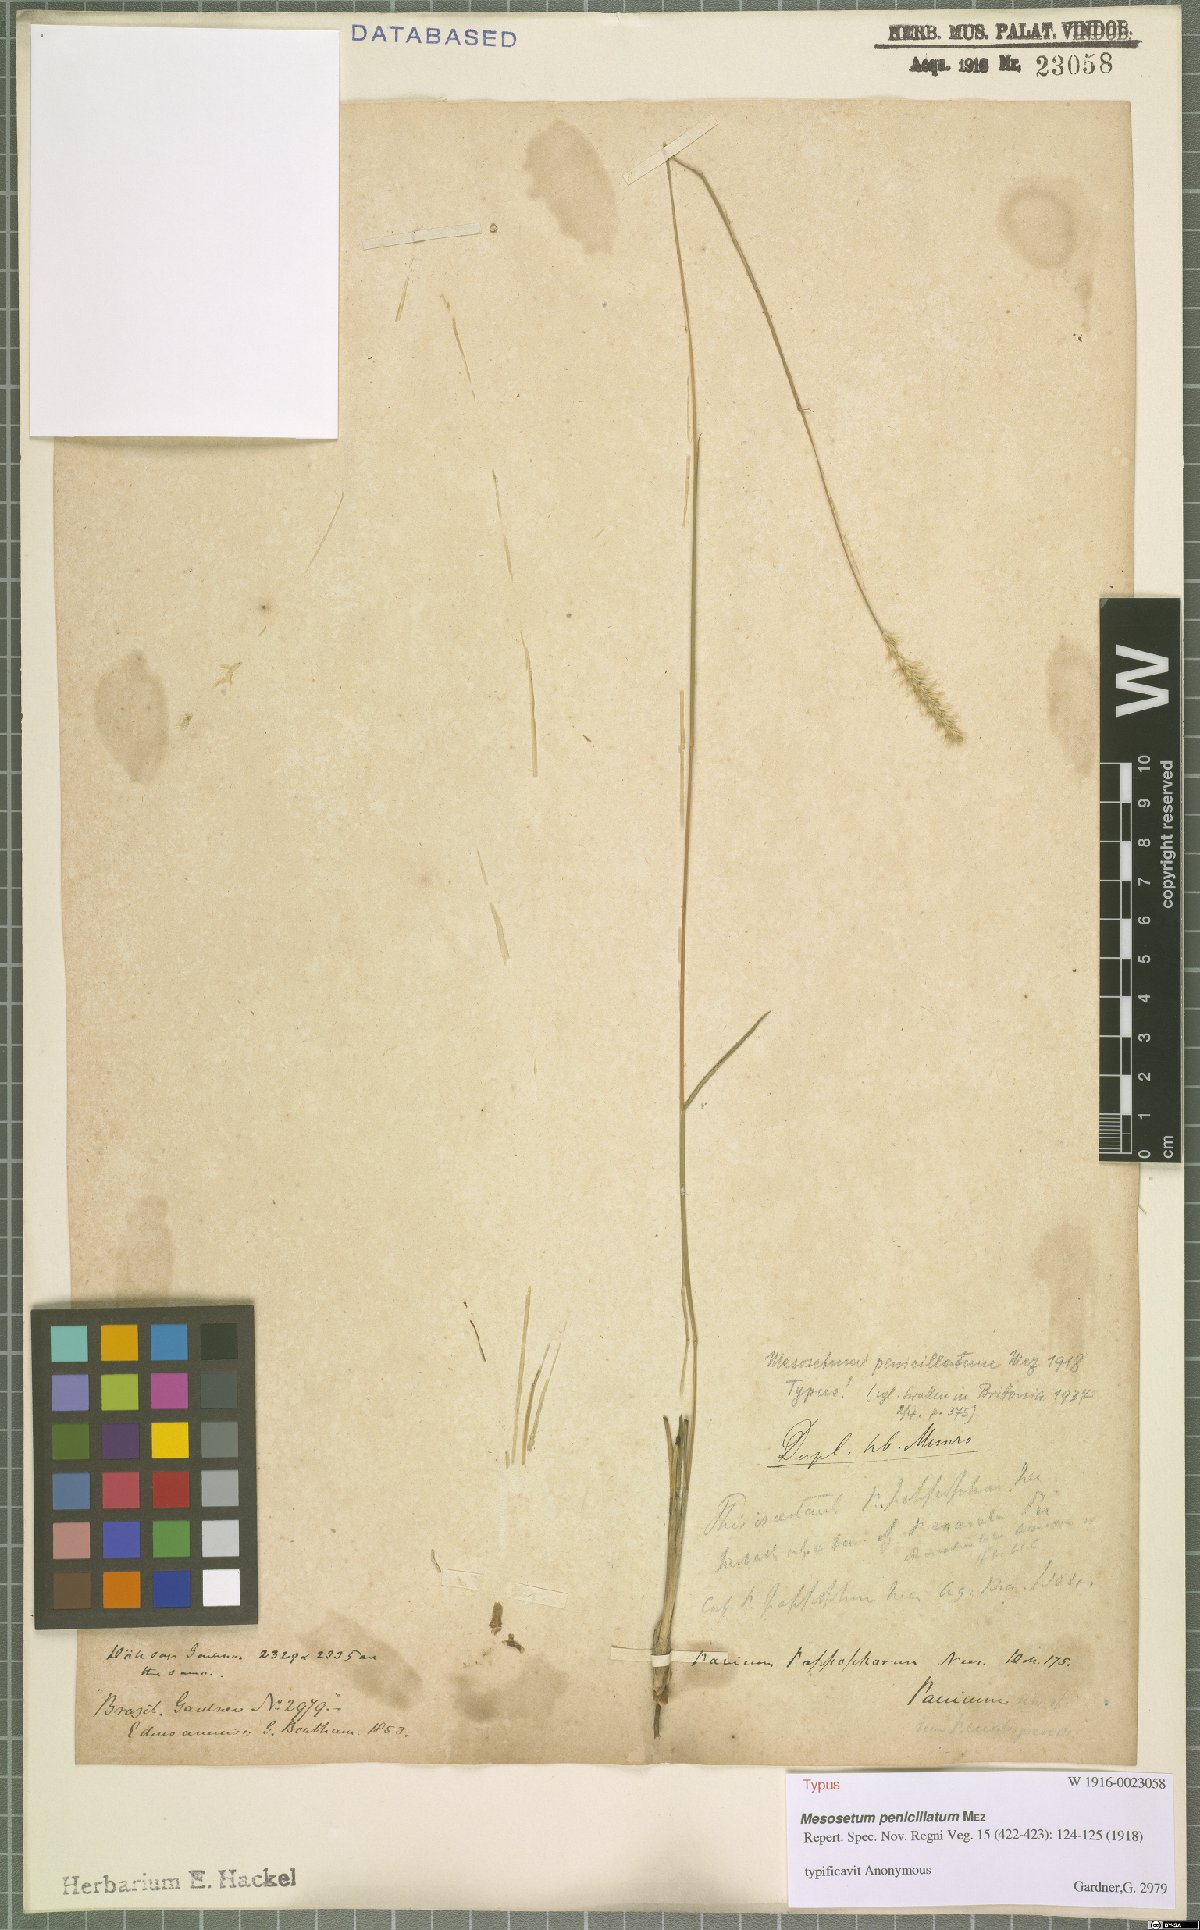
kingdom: Plantae
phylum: Tracheophyta
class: Liliopsida
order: Poales
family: Poaceae
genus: Mesosetum
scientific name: Mesosetum penicillatum
